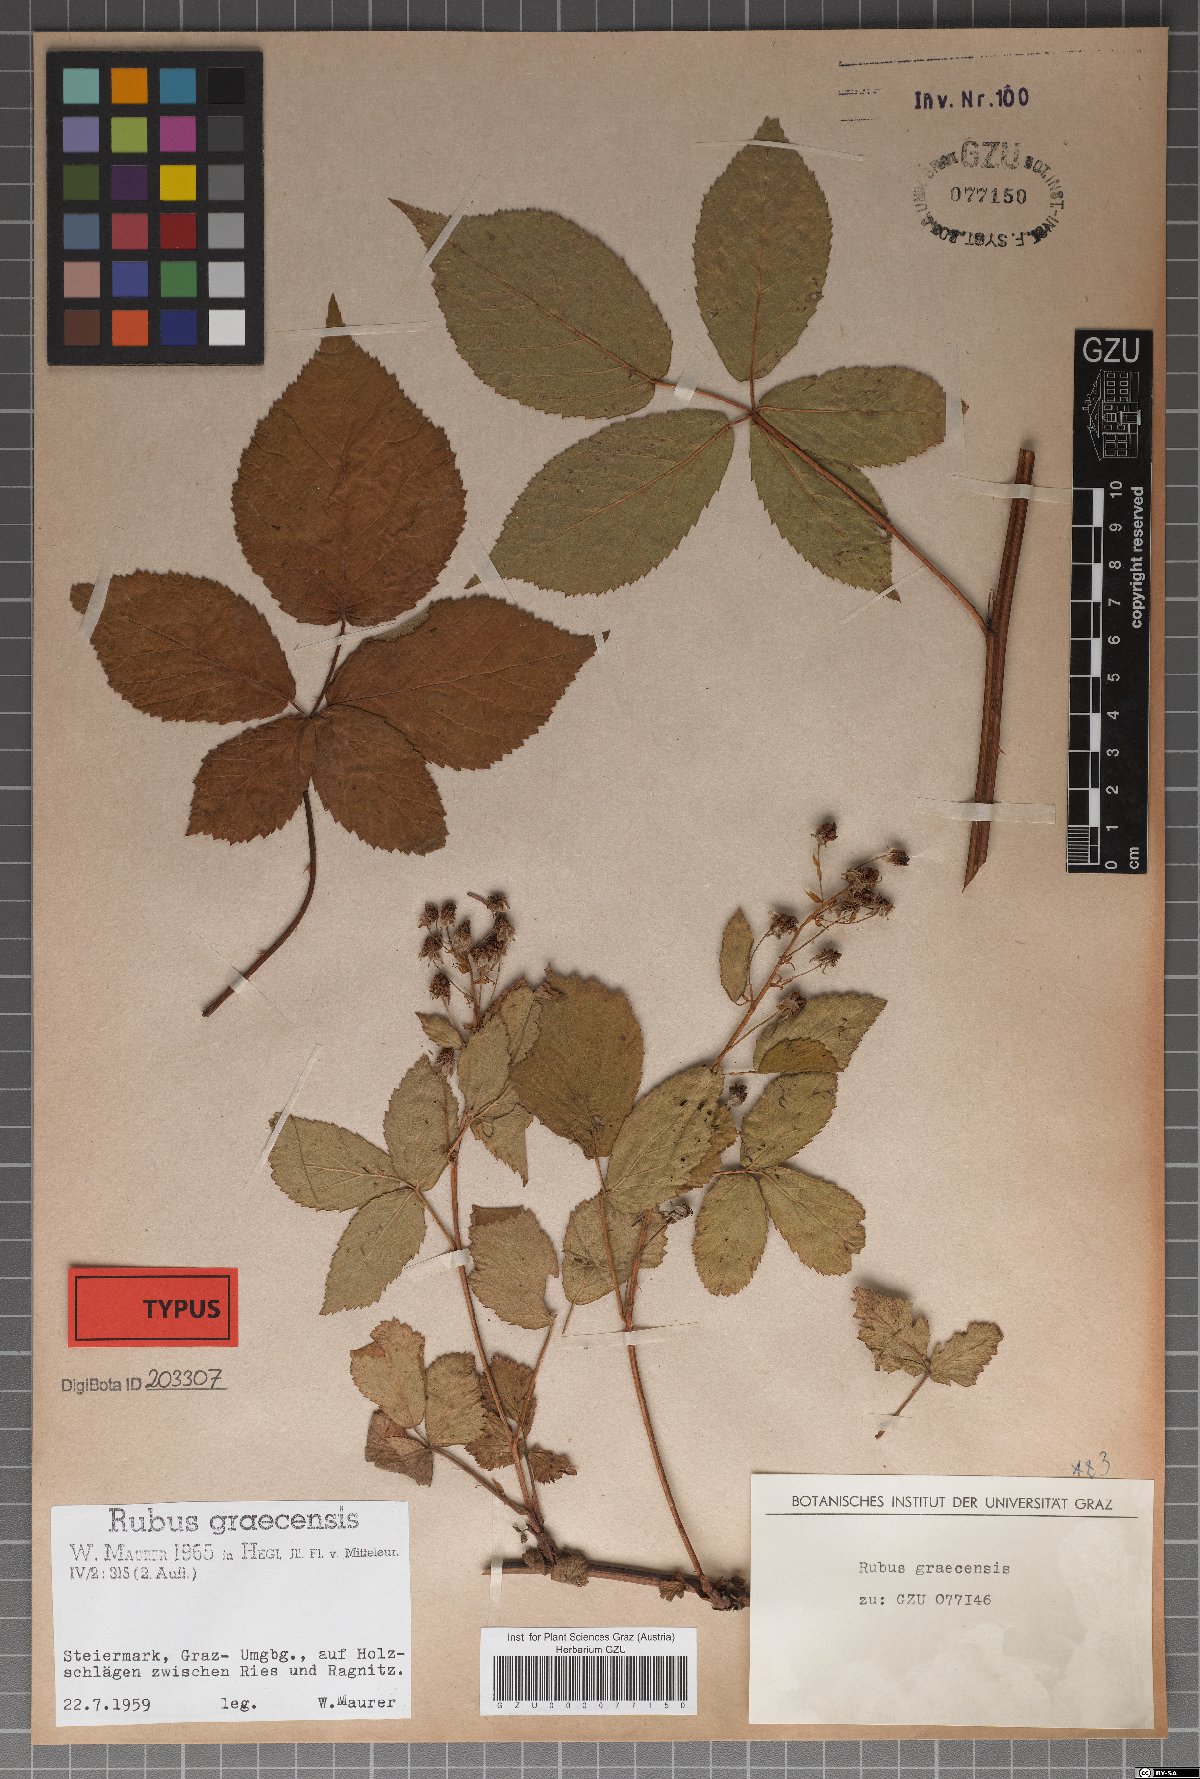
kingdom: Plantae
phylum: Tracheophyta
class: Magnoliopsida
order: Rosales
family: Rosaceae
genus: Rubus
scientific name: Rubus graecensis
